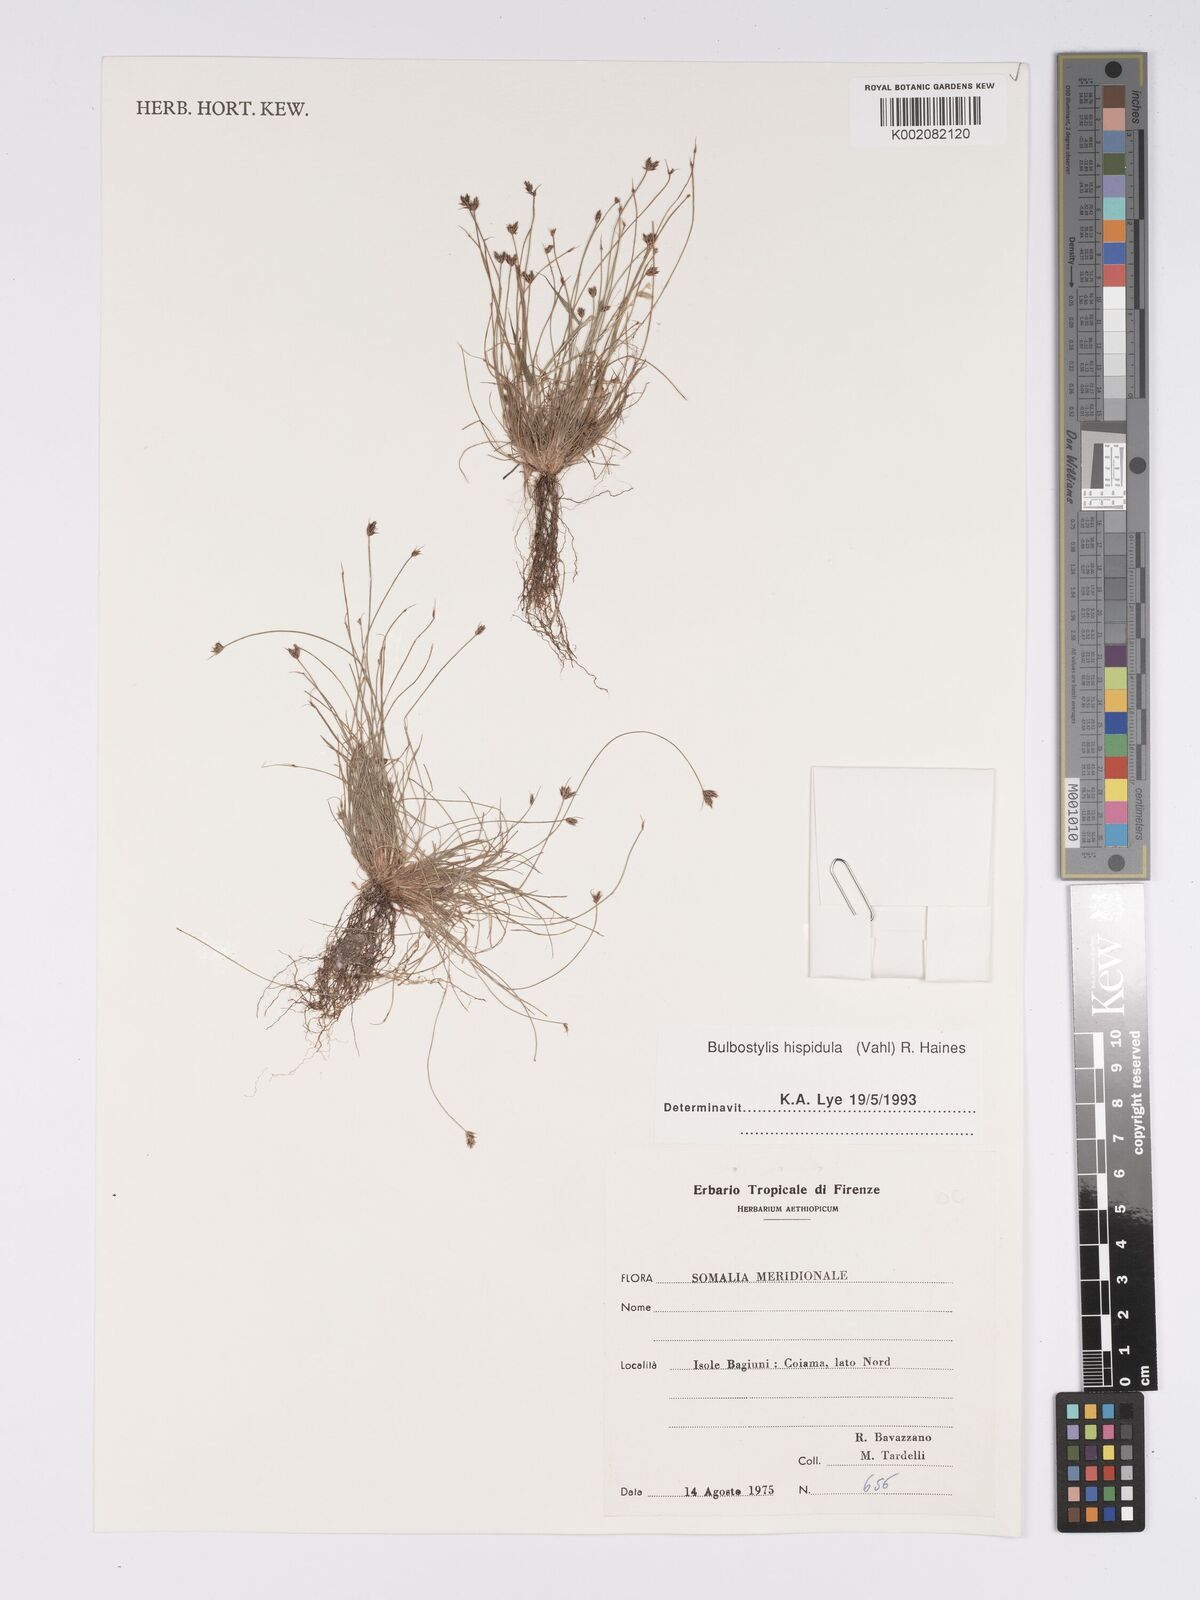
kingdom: Plantae
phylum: Tracheophyta
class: Liliopsida
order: Poales
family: Cyperaceae
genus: Bulbostylis
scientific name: Bulbostylis hispidula
